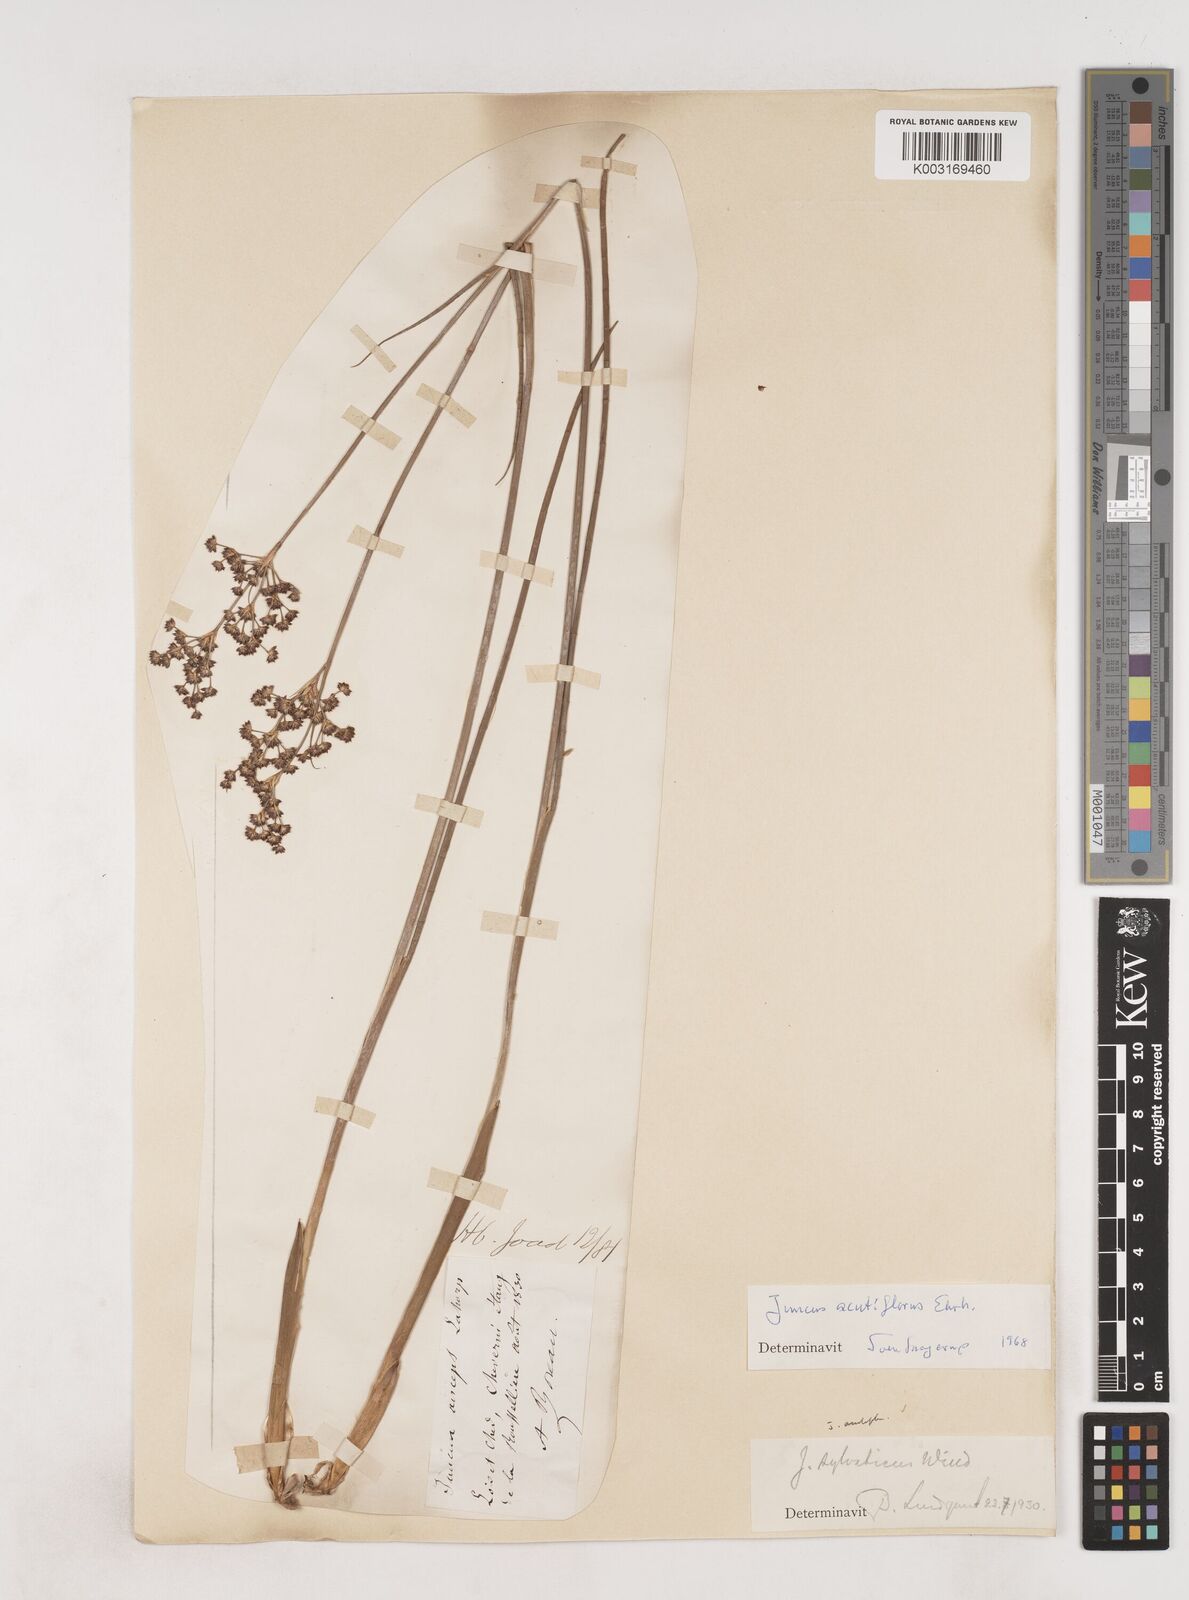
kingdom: Plantae
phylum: Tracheophyta
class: Liliopsida
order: Poales
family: Juncaceae
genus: Juncus
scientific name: Juncus acutiflorus
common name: Sharp-flowered rush
